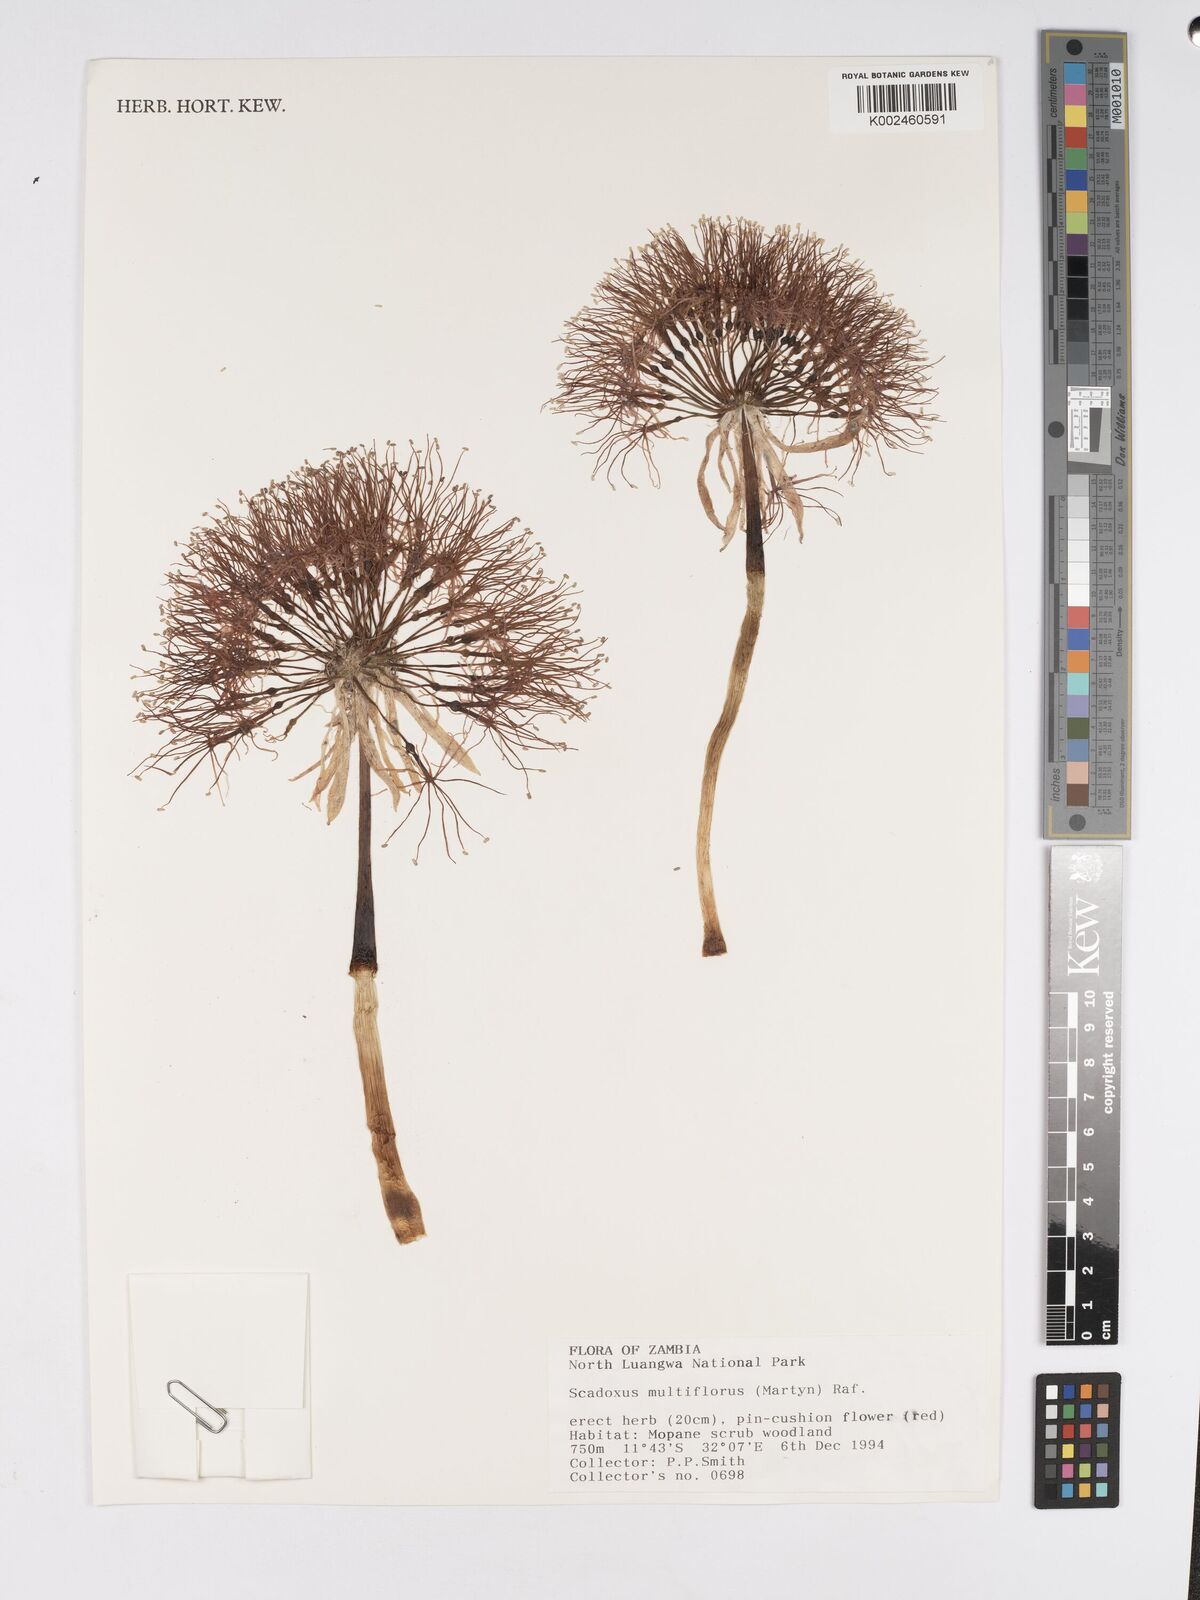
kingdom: Plantae
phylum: Tracheophyta
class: Liliopsida
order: Asparagales
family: Amaryllidaceae
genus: Scadoxus
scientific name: Scadoxus multiflorus
